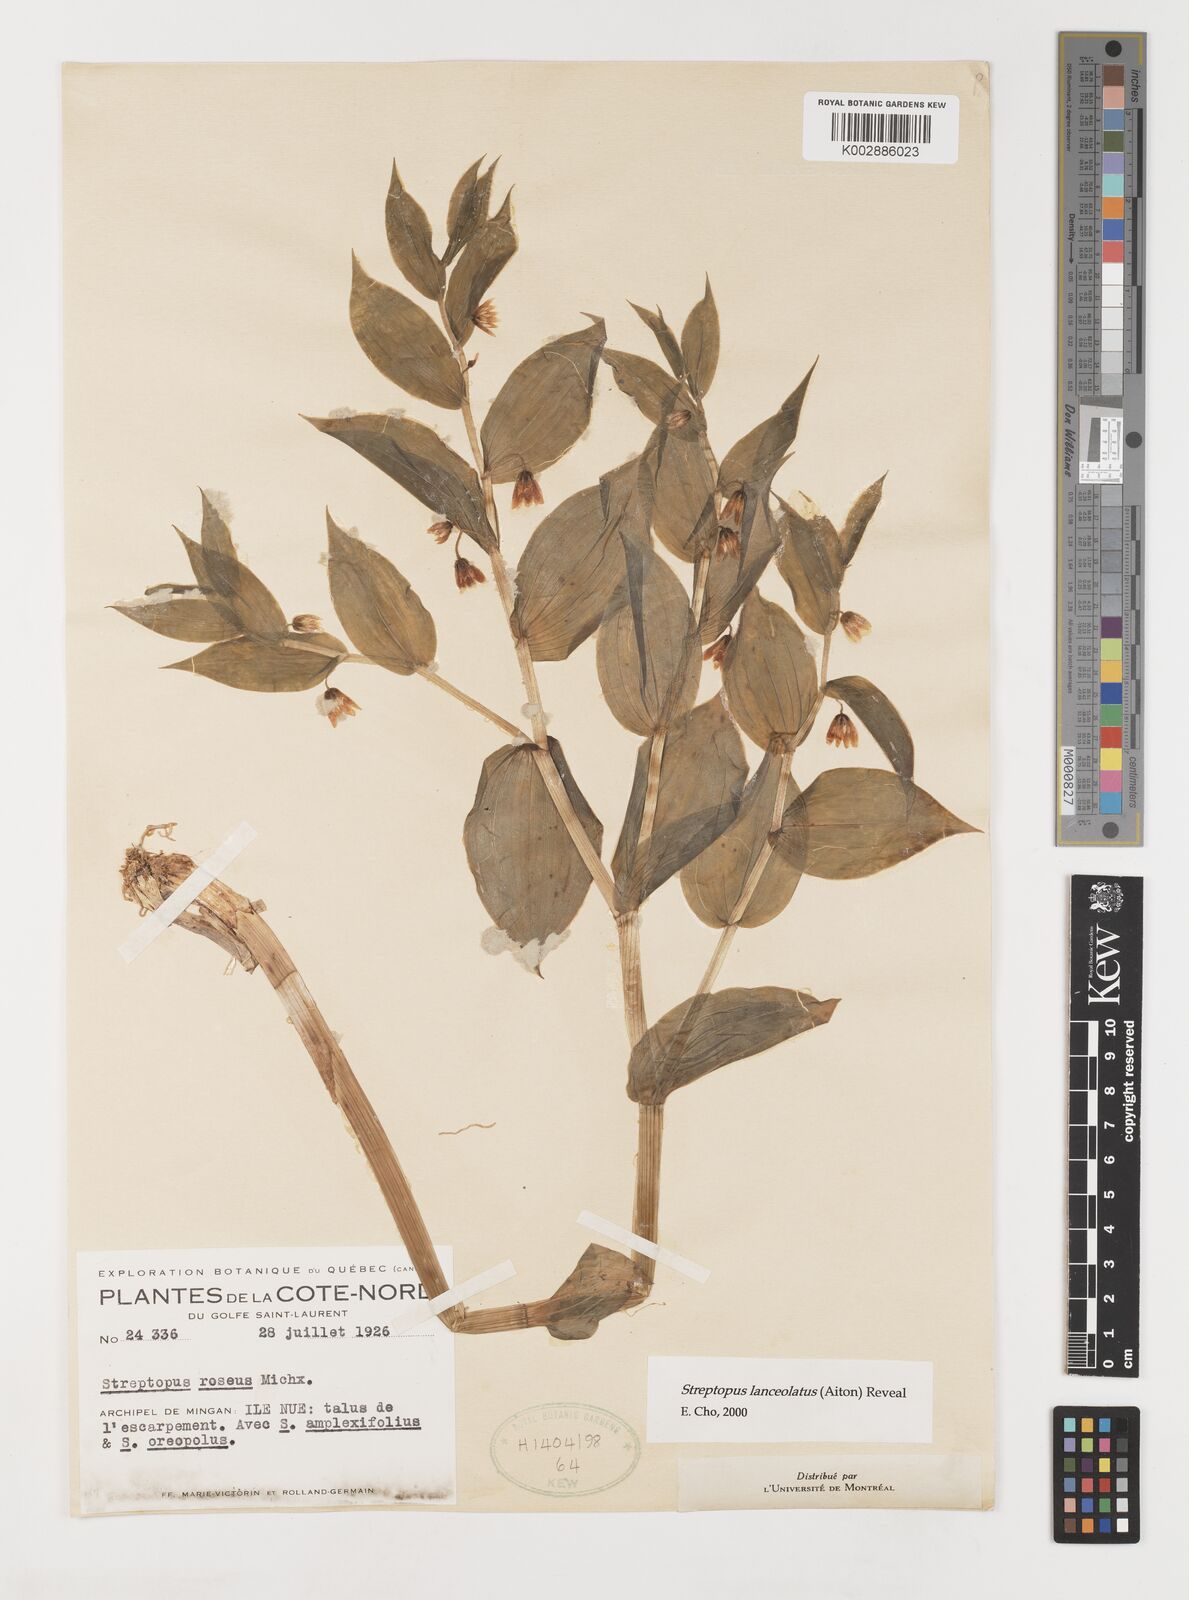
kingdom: Plantae
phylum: Tracheophyta
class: Liliopsida
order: Liliales
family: Liliaceae
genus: Streptopus
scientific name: Streptopus lanceolatus
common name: Rose mandarin
